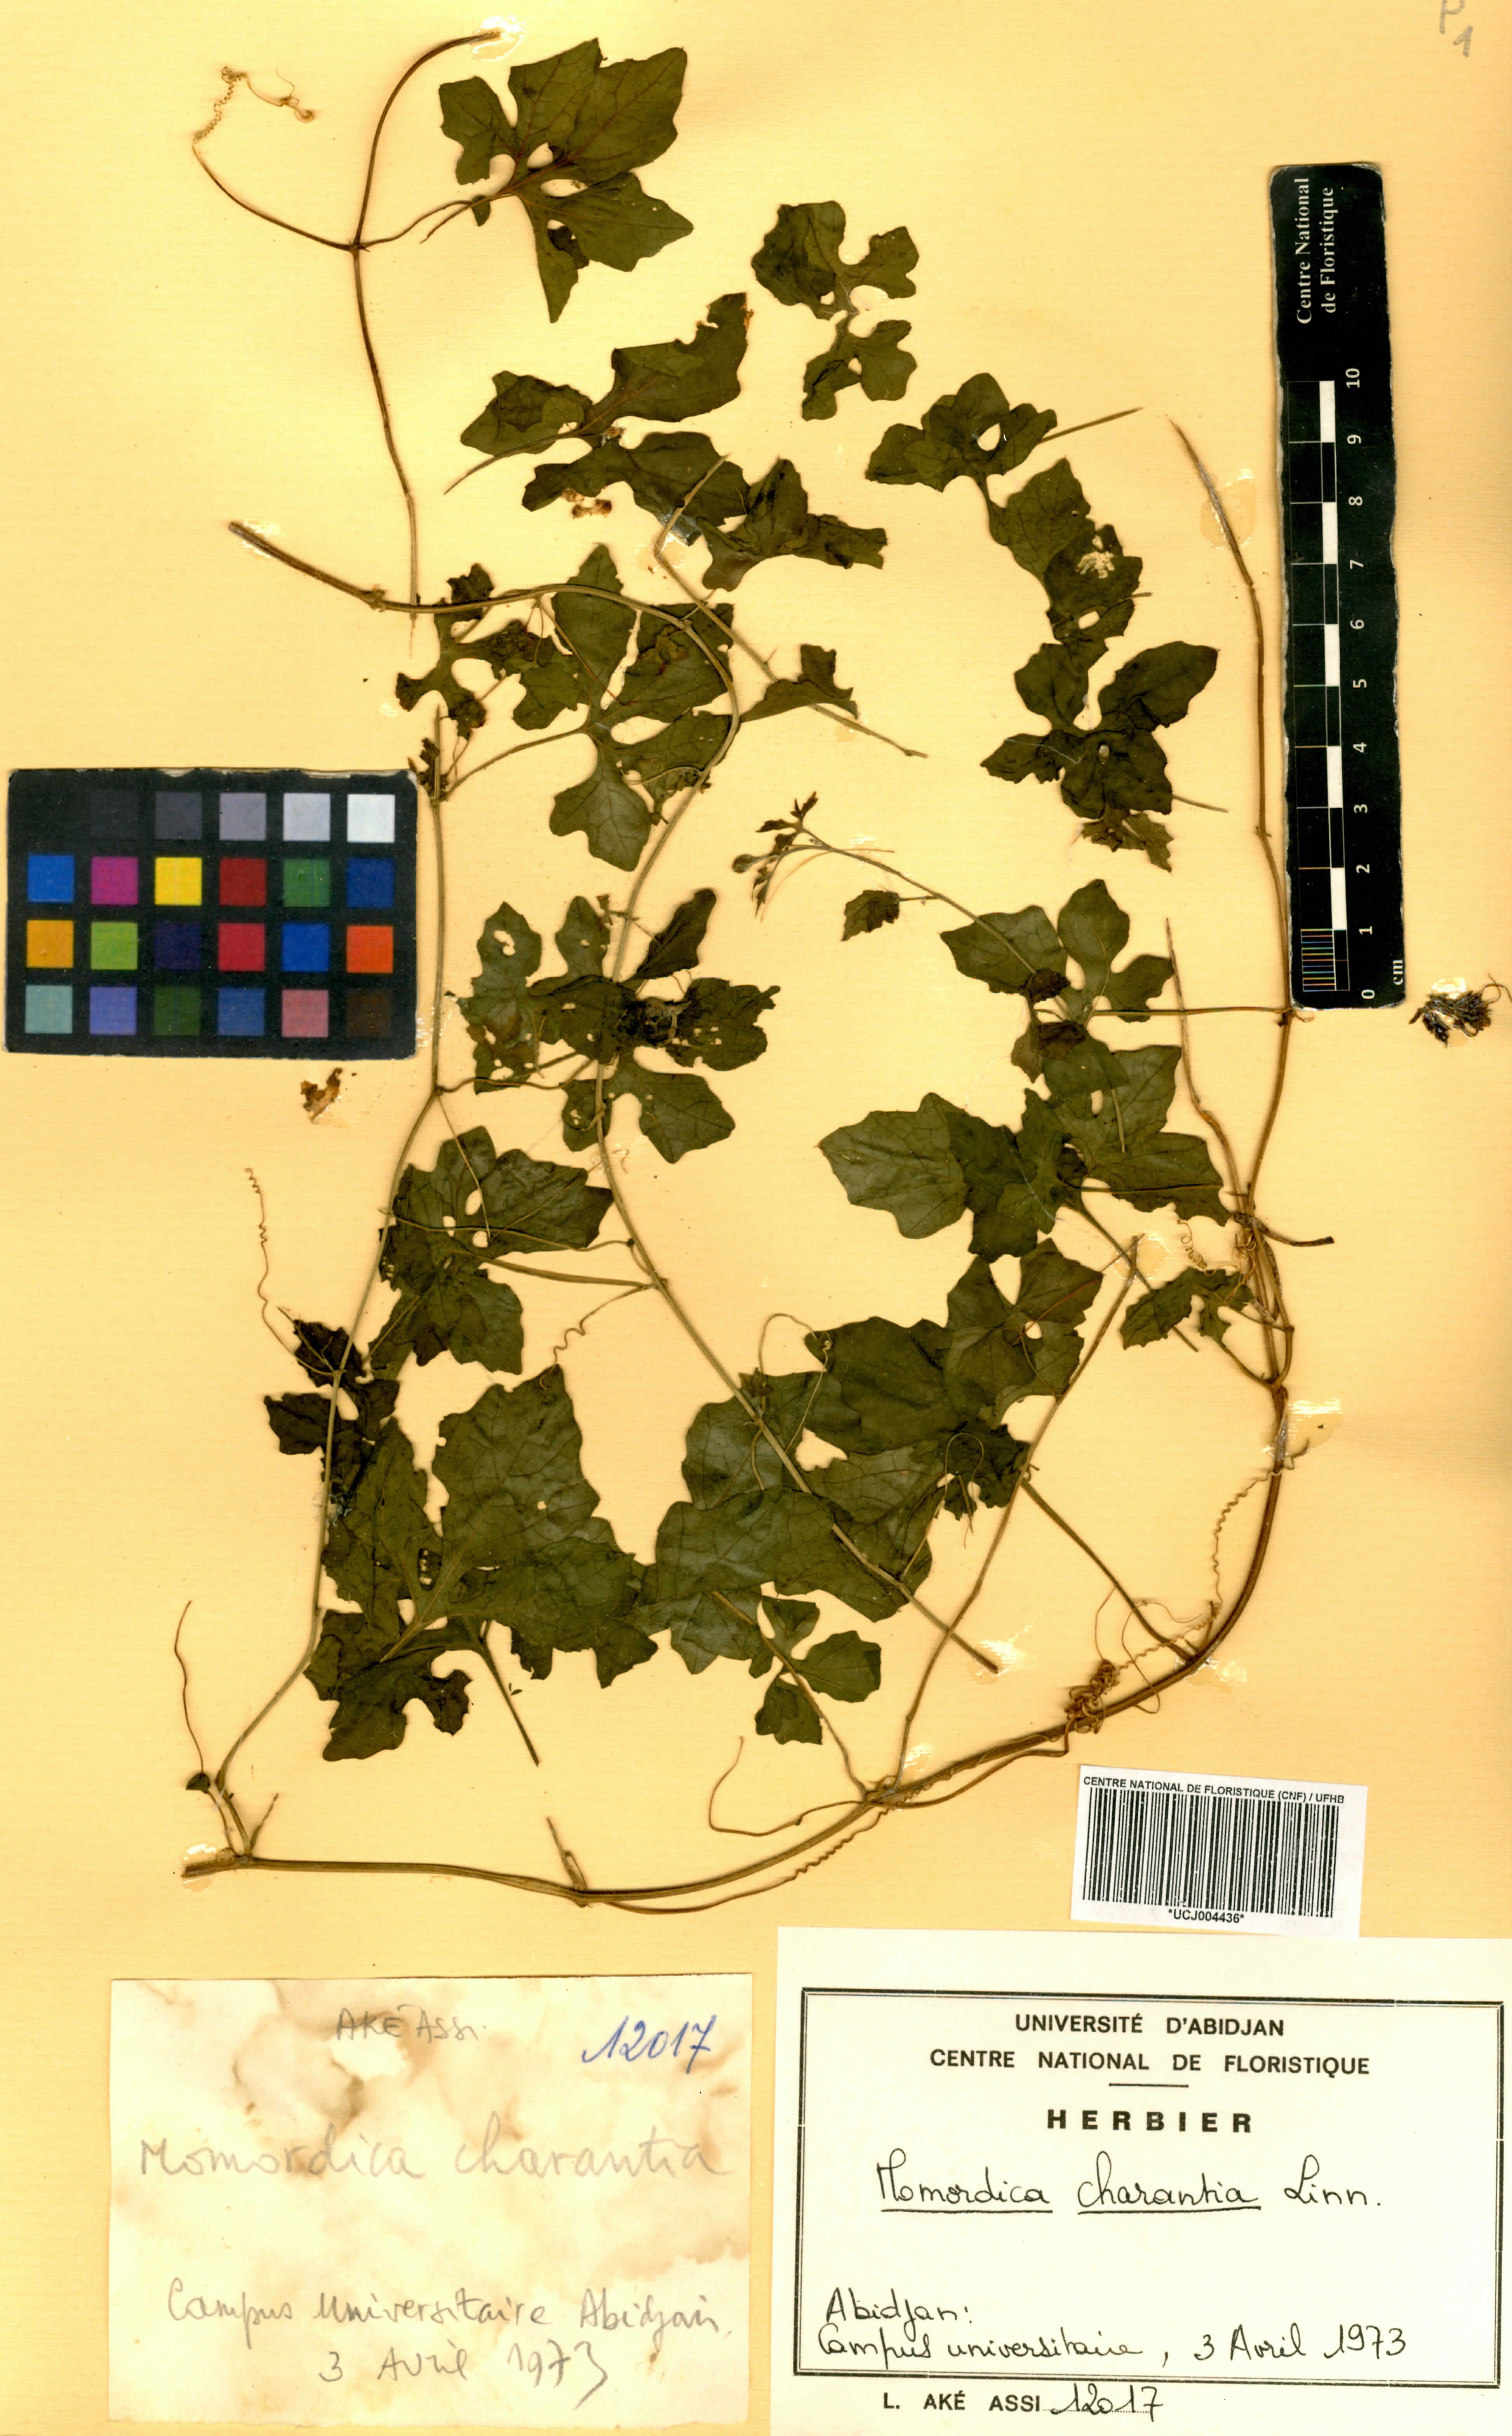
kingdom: Plantae
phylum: Tracheophyta
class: Magnoliopsida
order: Cucurbitales
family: Cucurbitaceae
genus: Momordica
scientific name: Momordica charantia
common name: Balsampear
